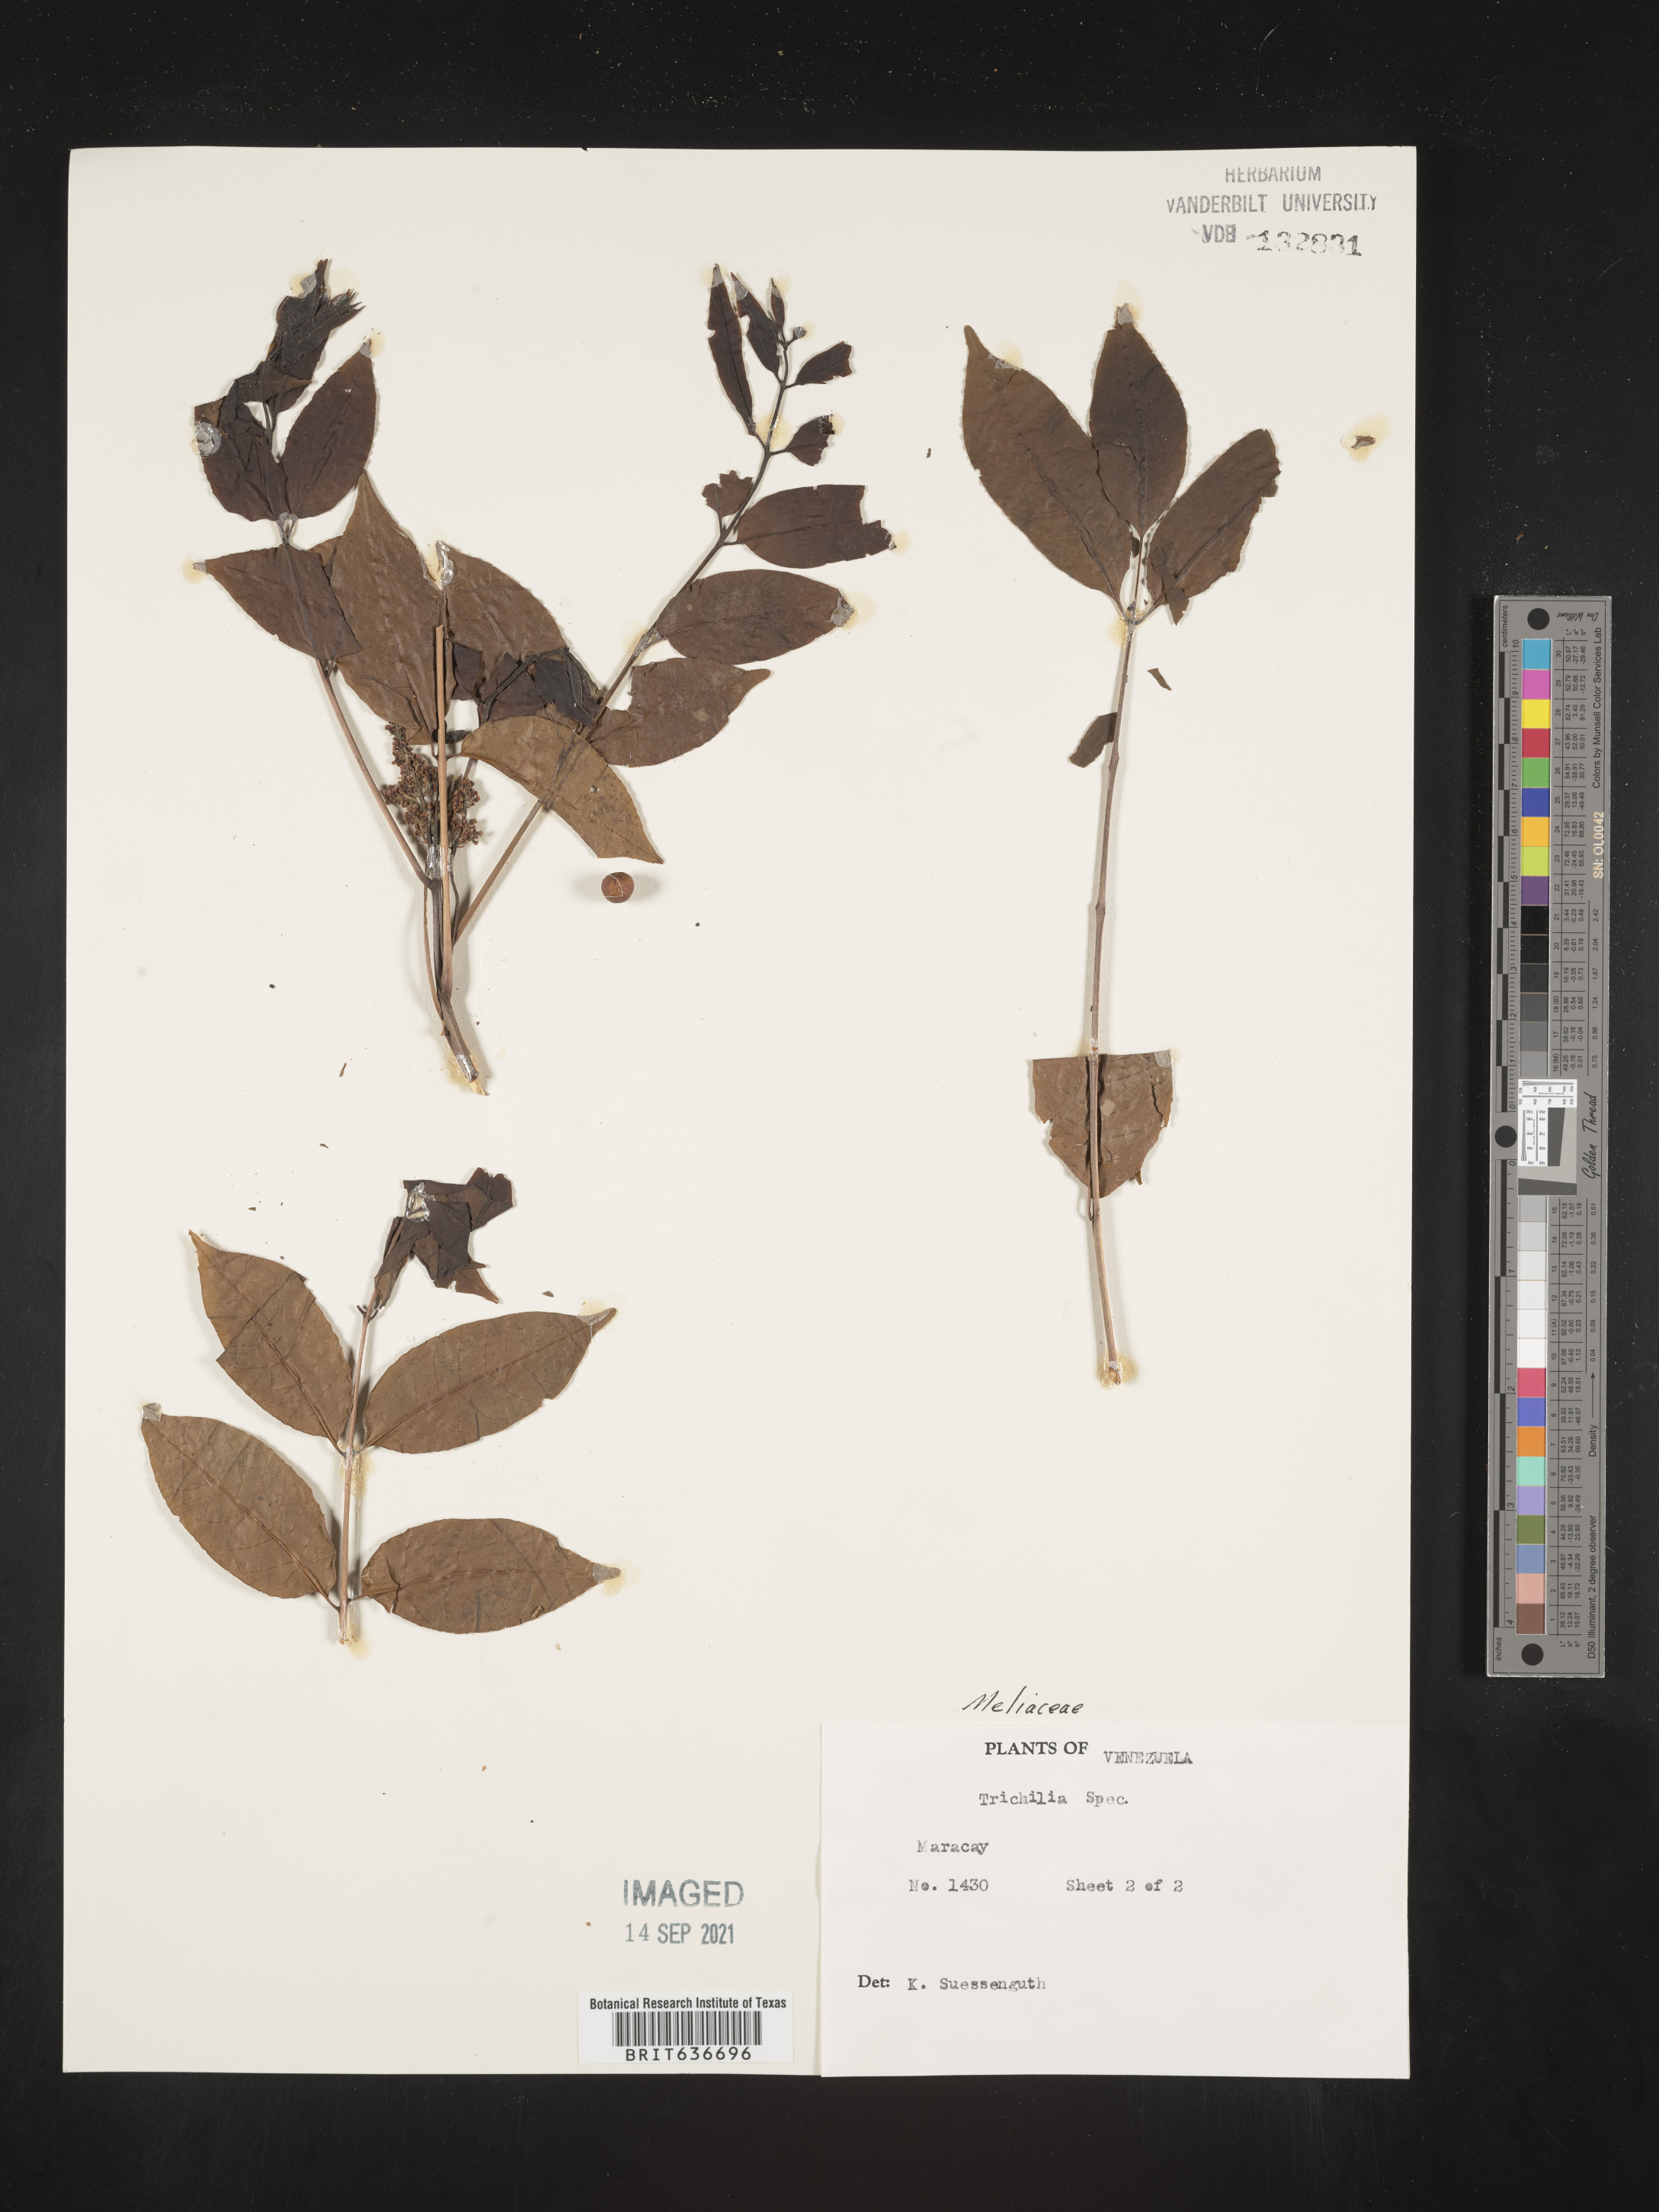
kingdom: Plantae
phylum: Tracheophyta
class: Magnoliopsida
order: Sapindales
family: Meliaceae
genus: Trichilia
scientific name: Trichilia
